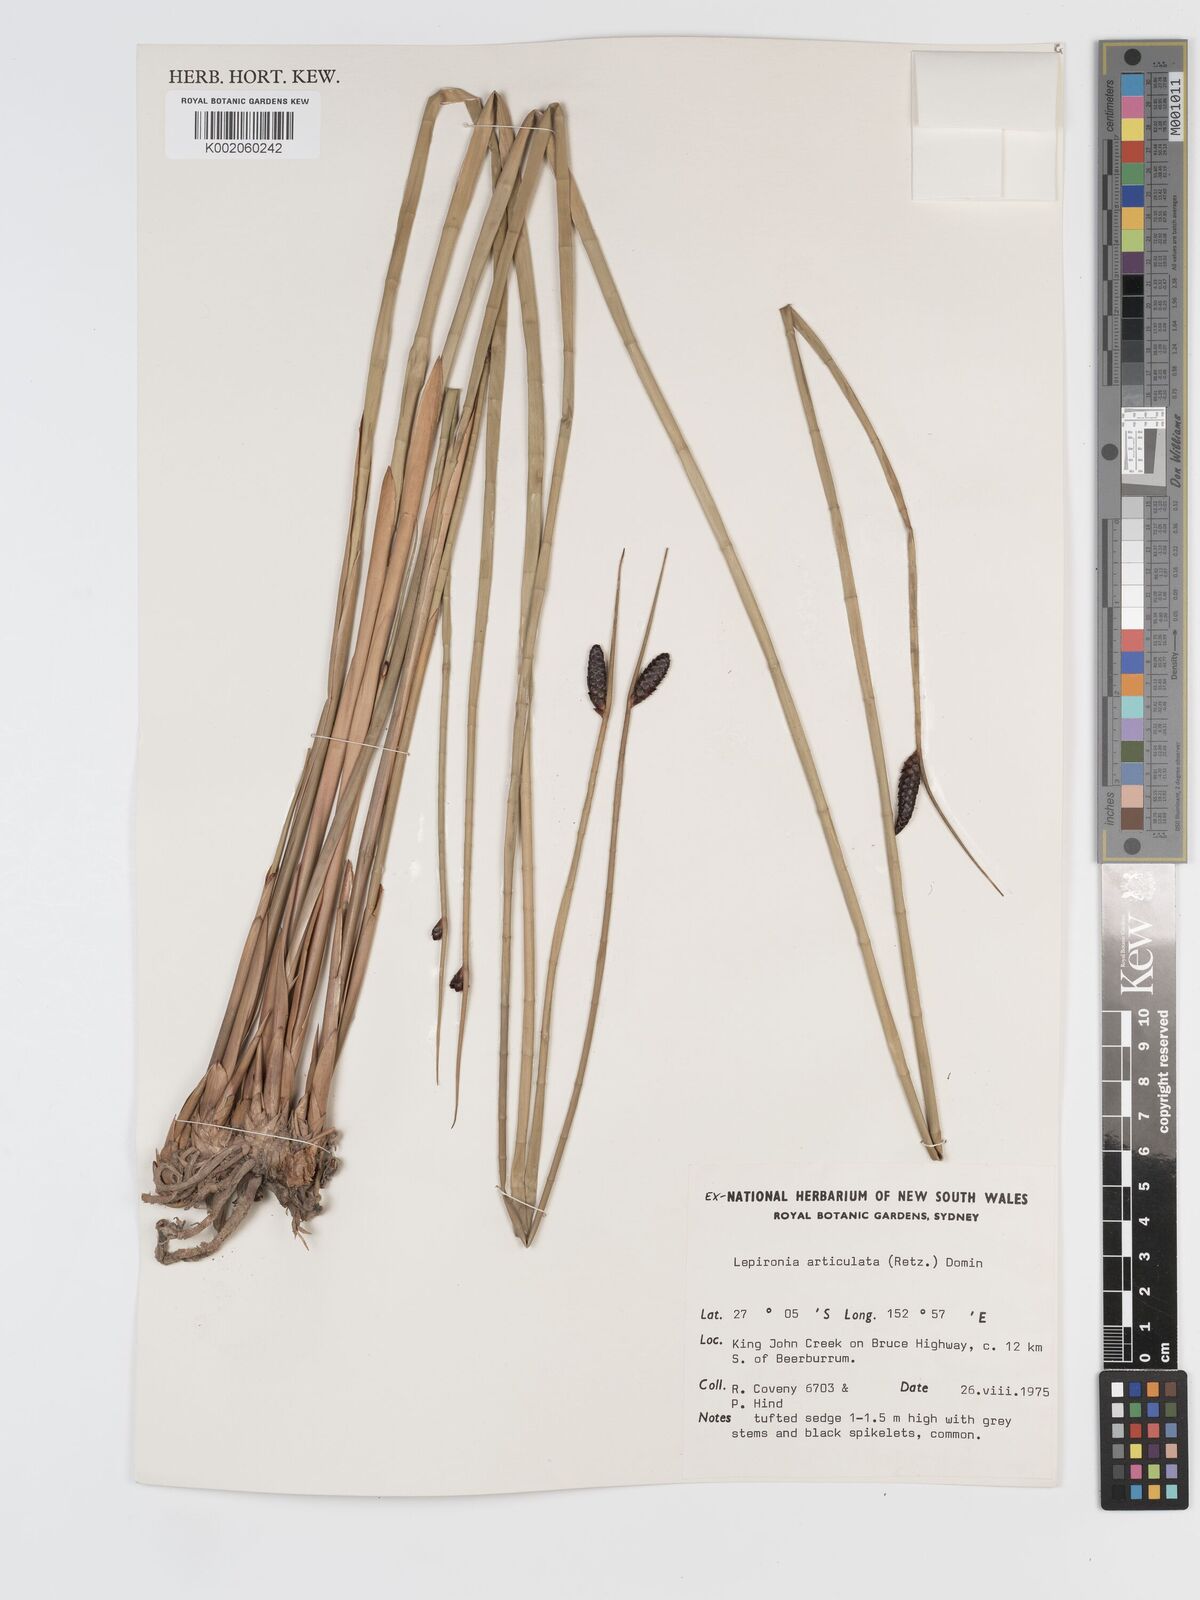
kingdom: Plantae
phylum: Tracheophyta
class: Liliopsida
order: Poales
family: Cyperaceae
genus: Lepironia
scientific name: Lepironia articulata
